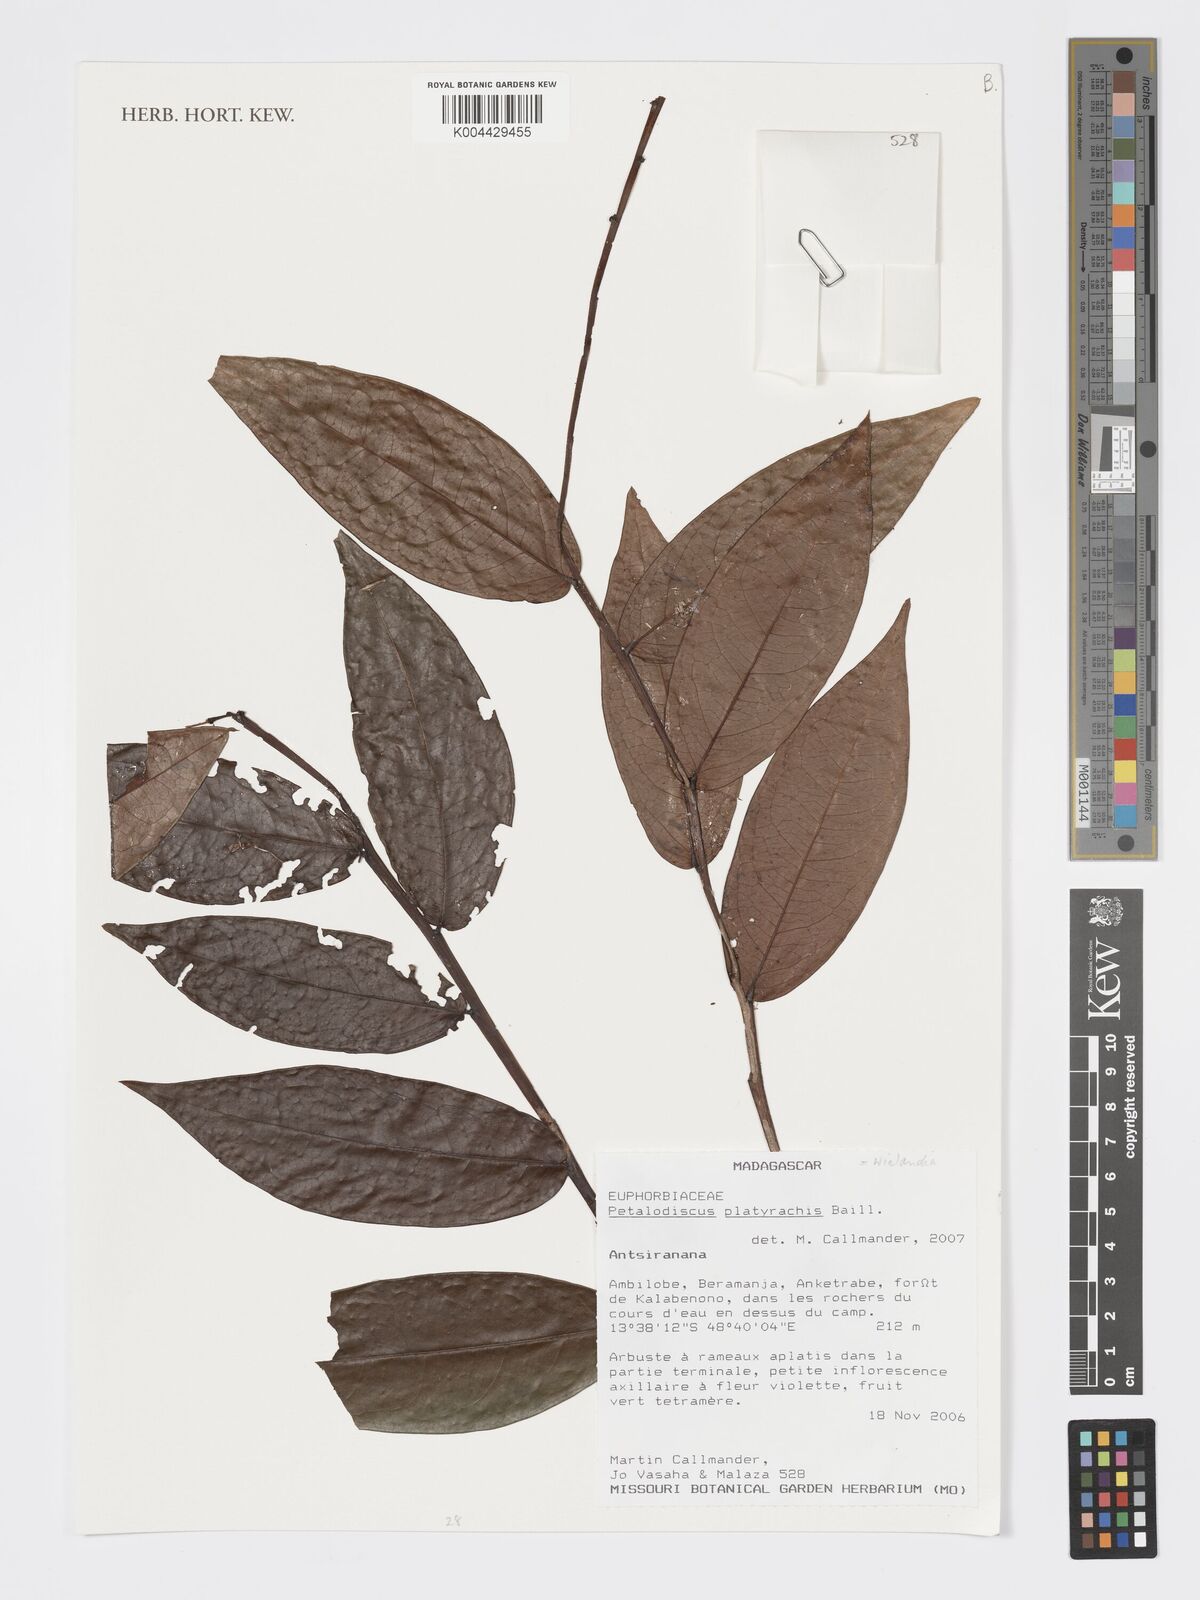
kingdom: Plantae
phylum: Tracheophyta
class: Magnoliopsida
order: Malpighiales
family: Phyllanthaceae
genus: Wielandia
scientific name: Wielandia platyrachis
